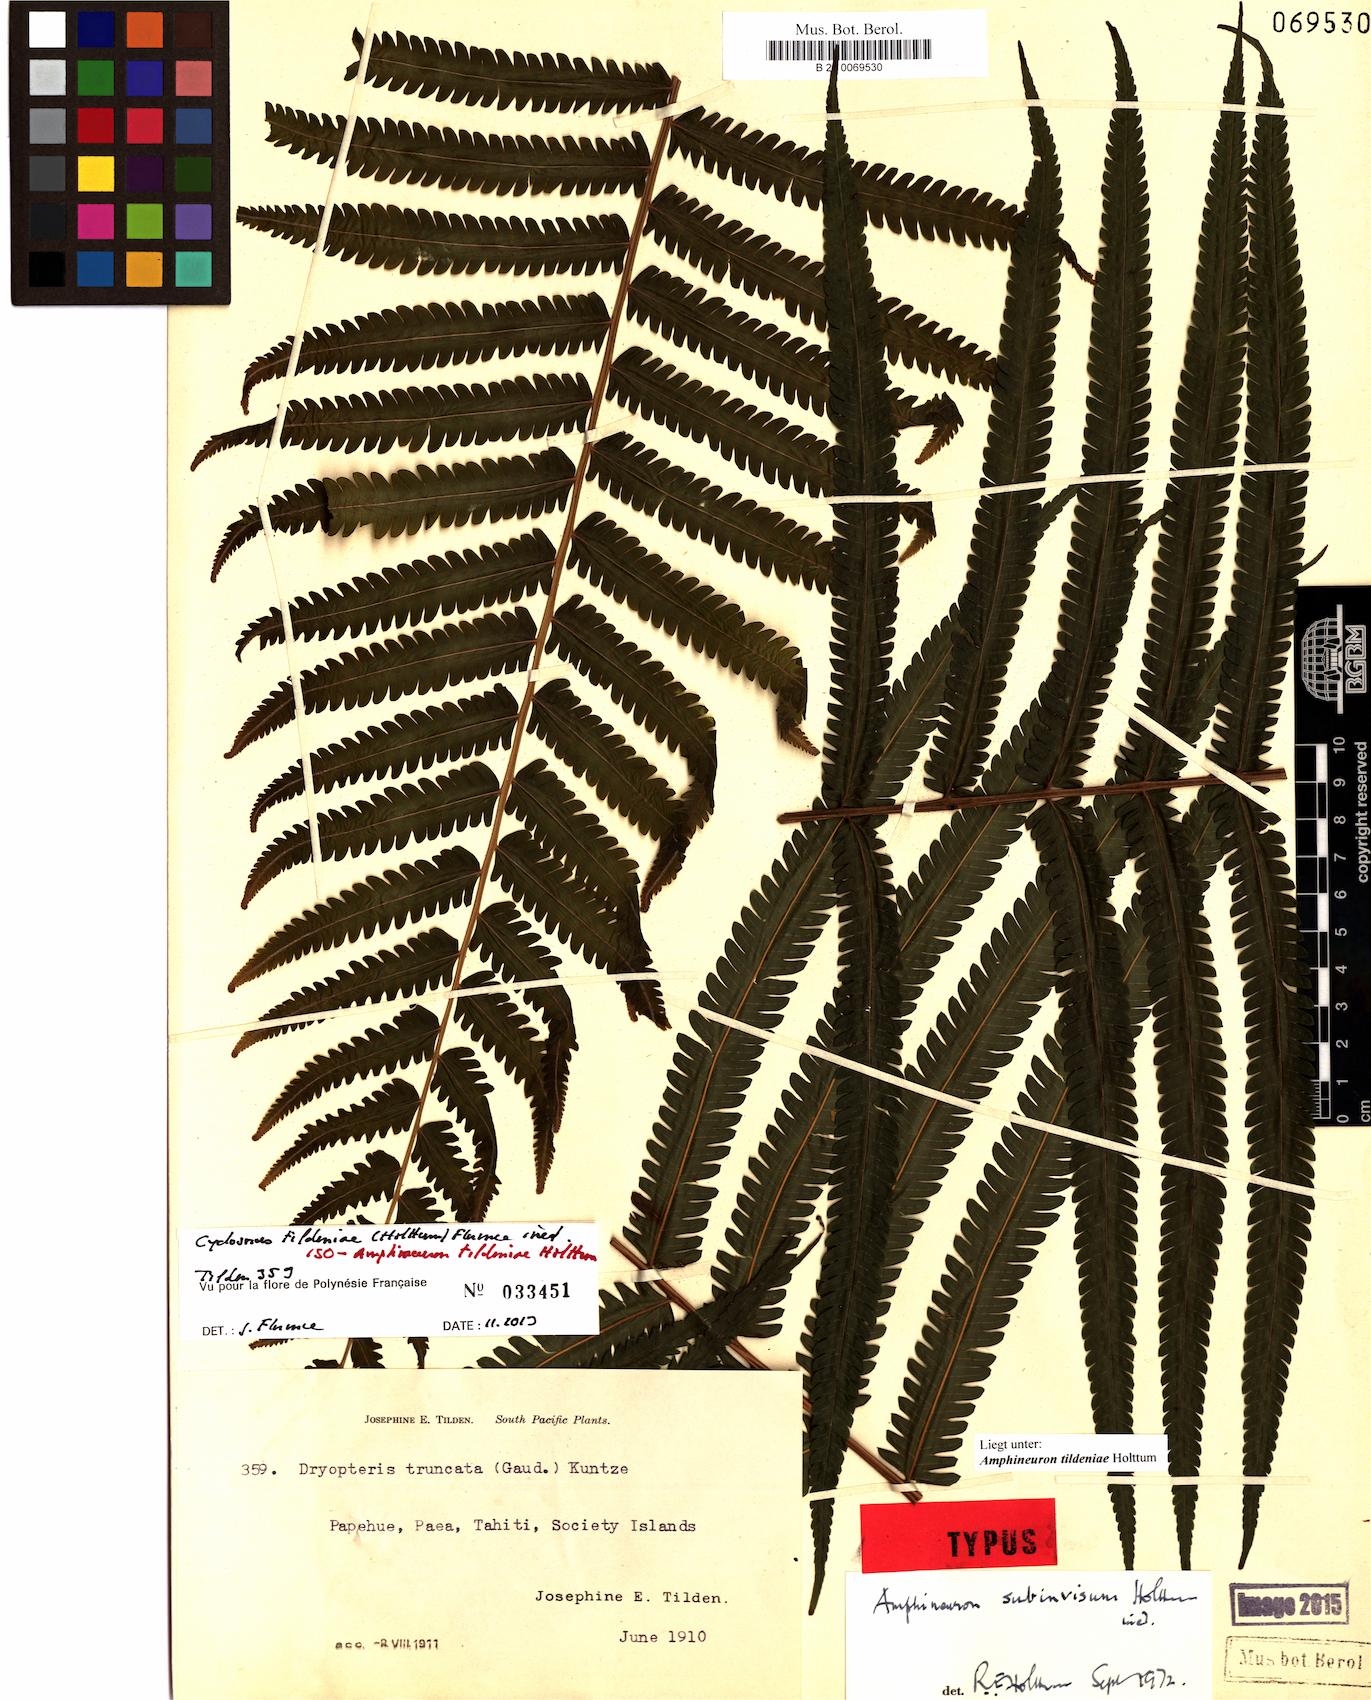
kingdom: Plantae
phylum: Tracheophyta
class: Polypodiopsida
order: Polypodiales
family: Thelypteridaceae
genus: Amblovenatum
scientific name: Amblovenatum tildeniae
